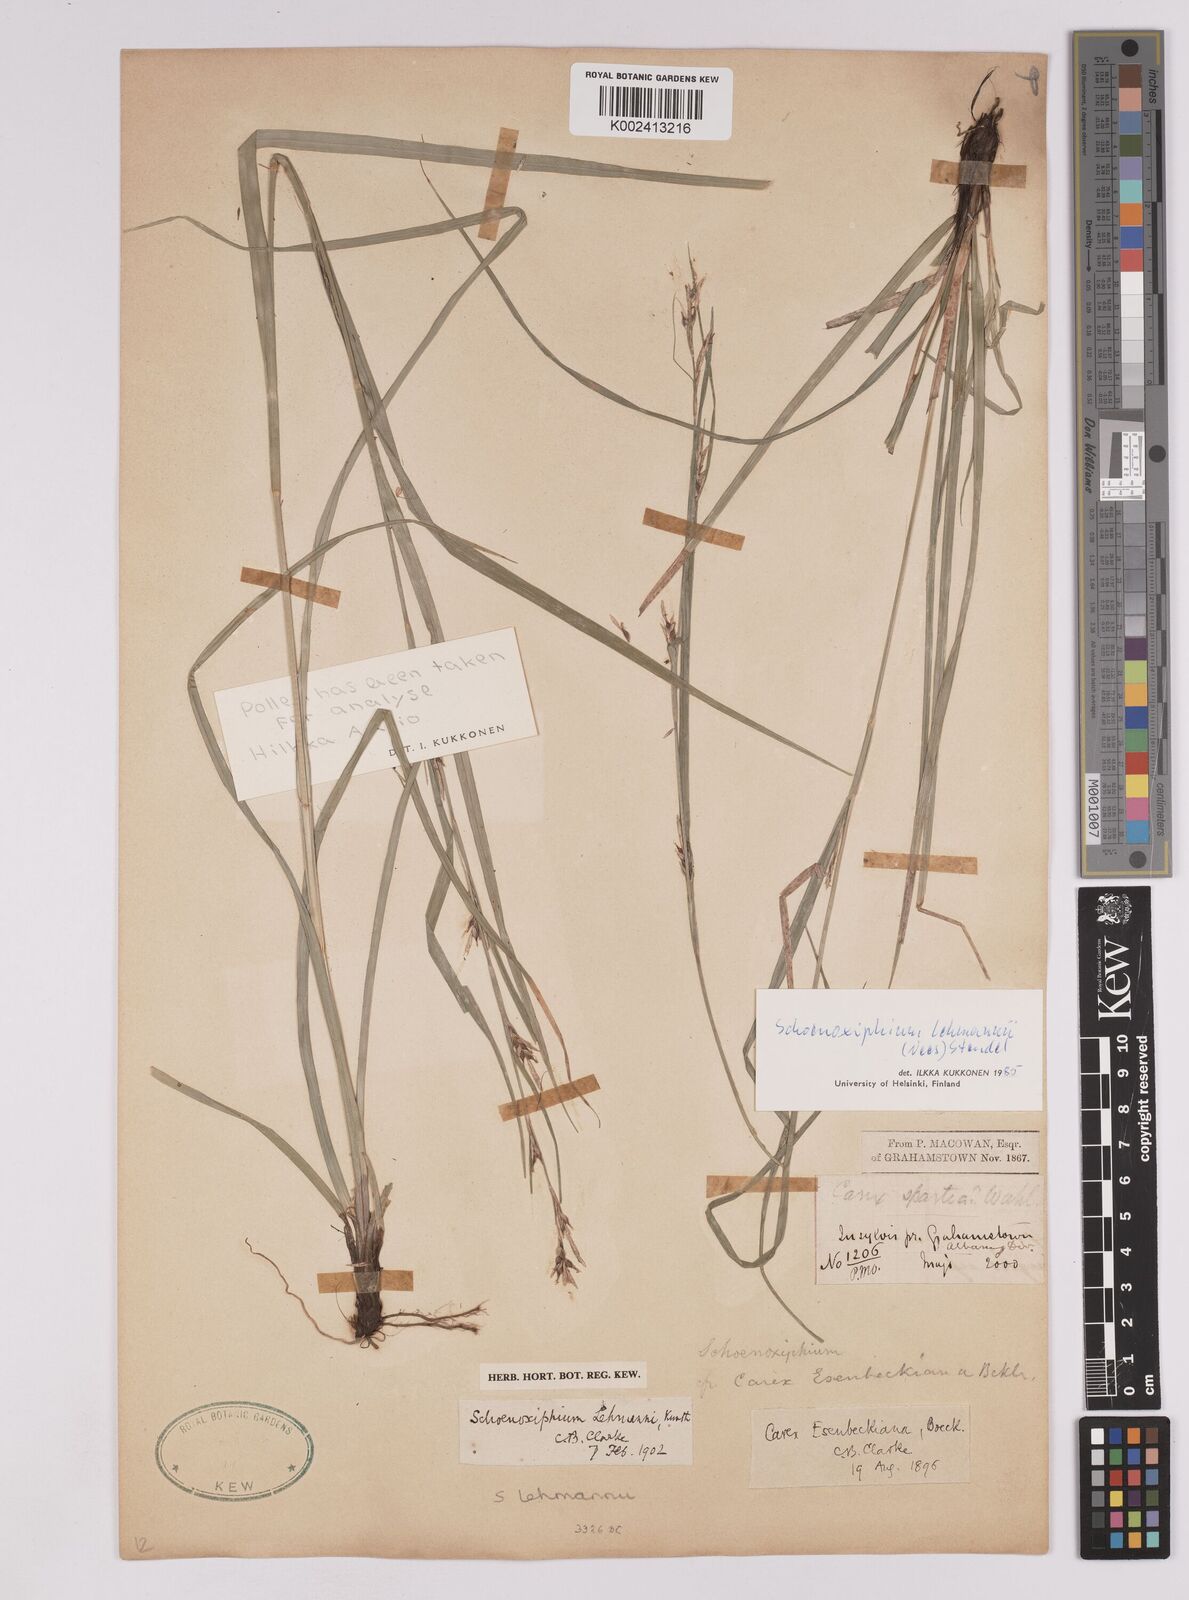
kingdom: Plantae
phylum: Tracheophyta
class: Liliopsida
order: Poales
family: Cyperaceae
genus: Carex
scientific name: Carex uhligii
